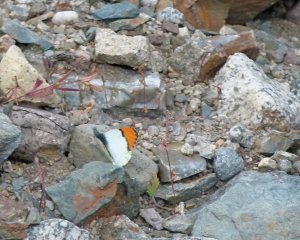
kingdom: Animalia
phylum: Arthropoda
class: Insecta
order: Lepidoptera
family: Pieridae
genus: Anthocharis
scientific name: Anthocharis sara
